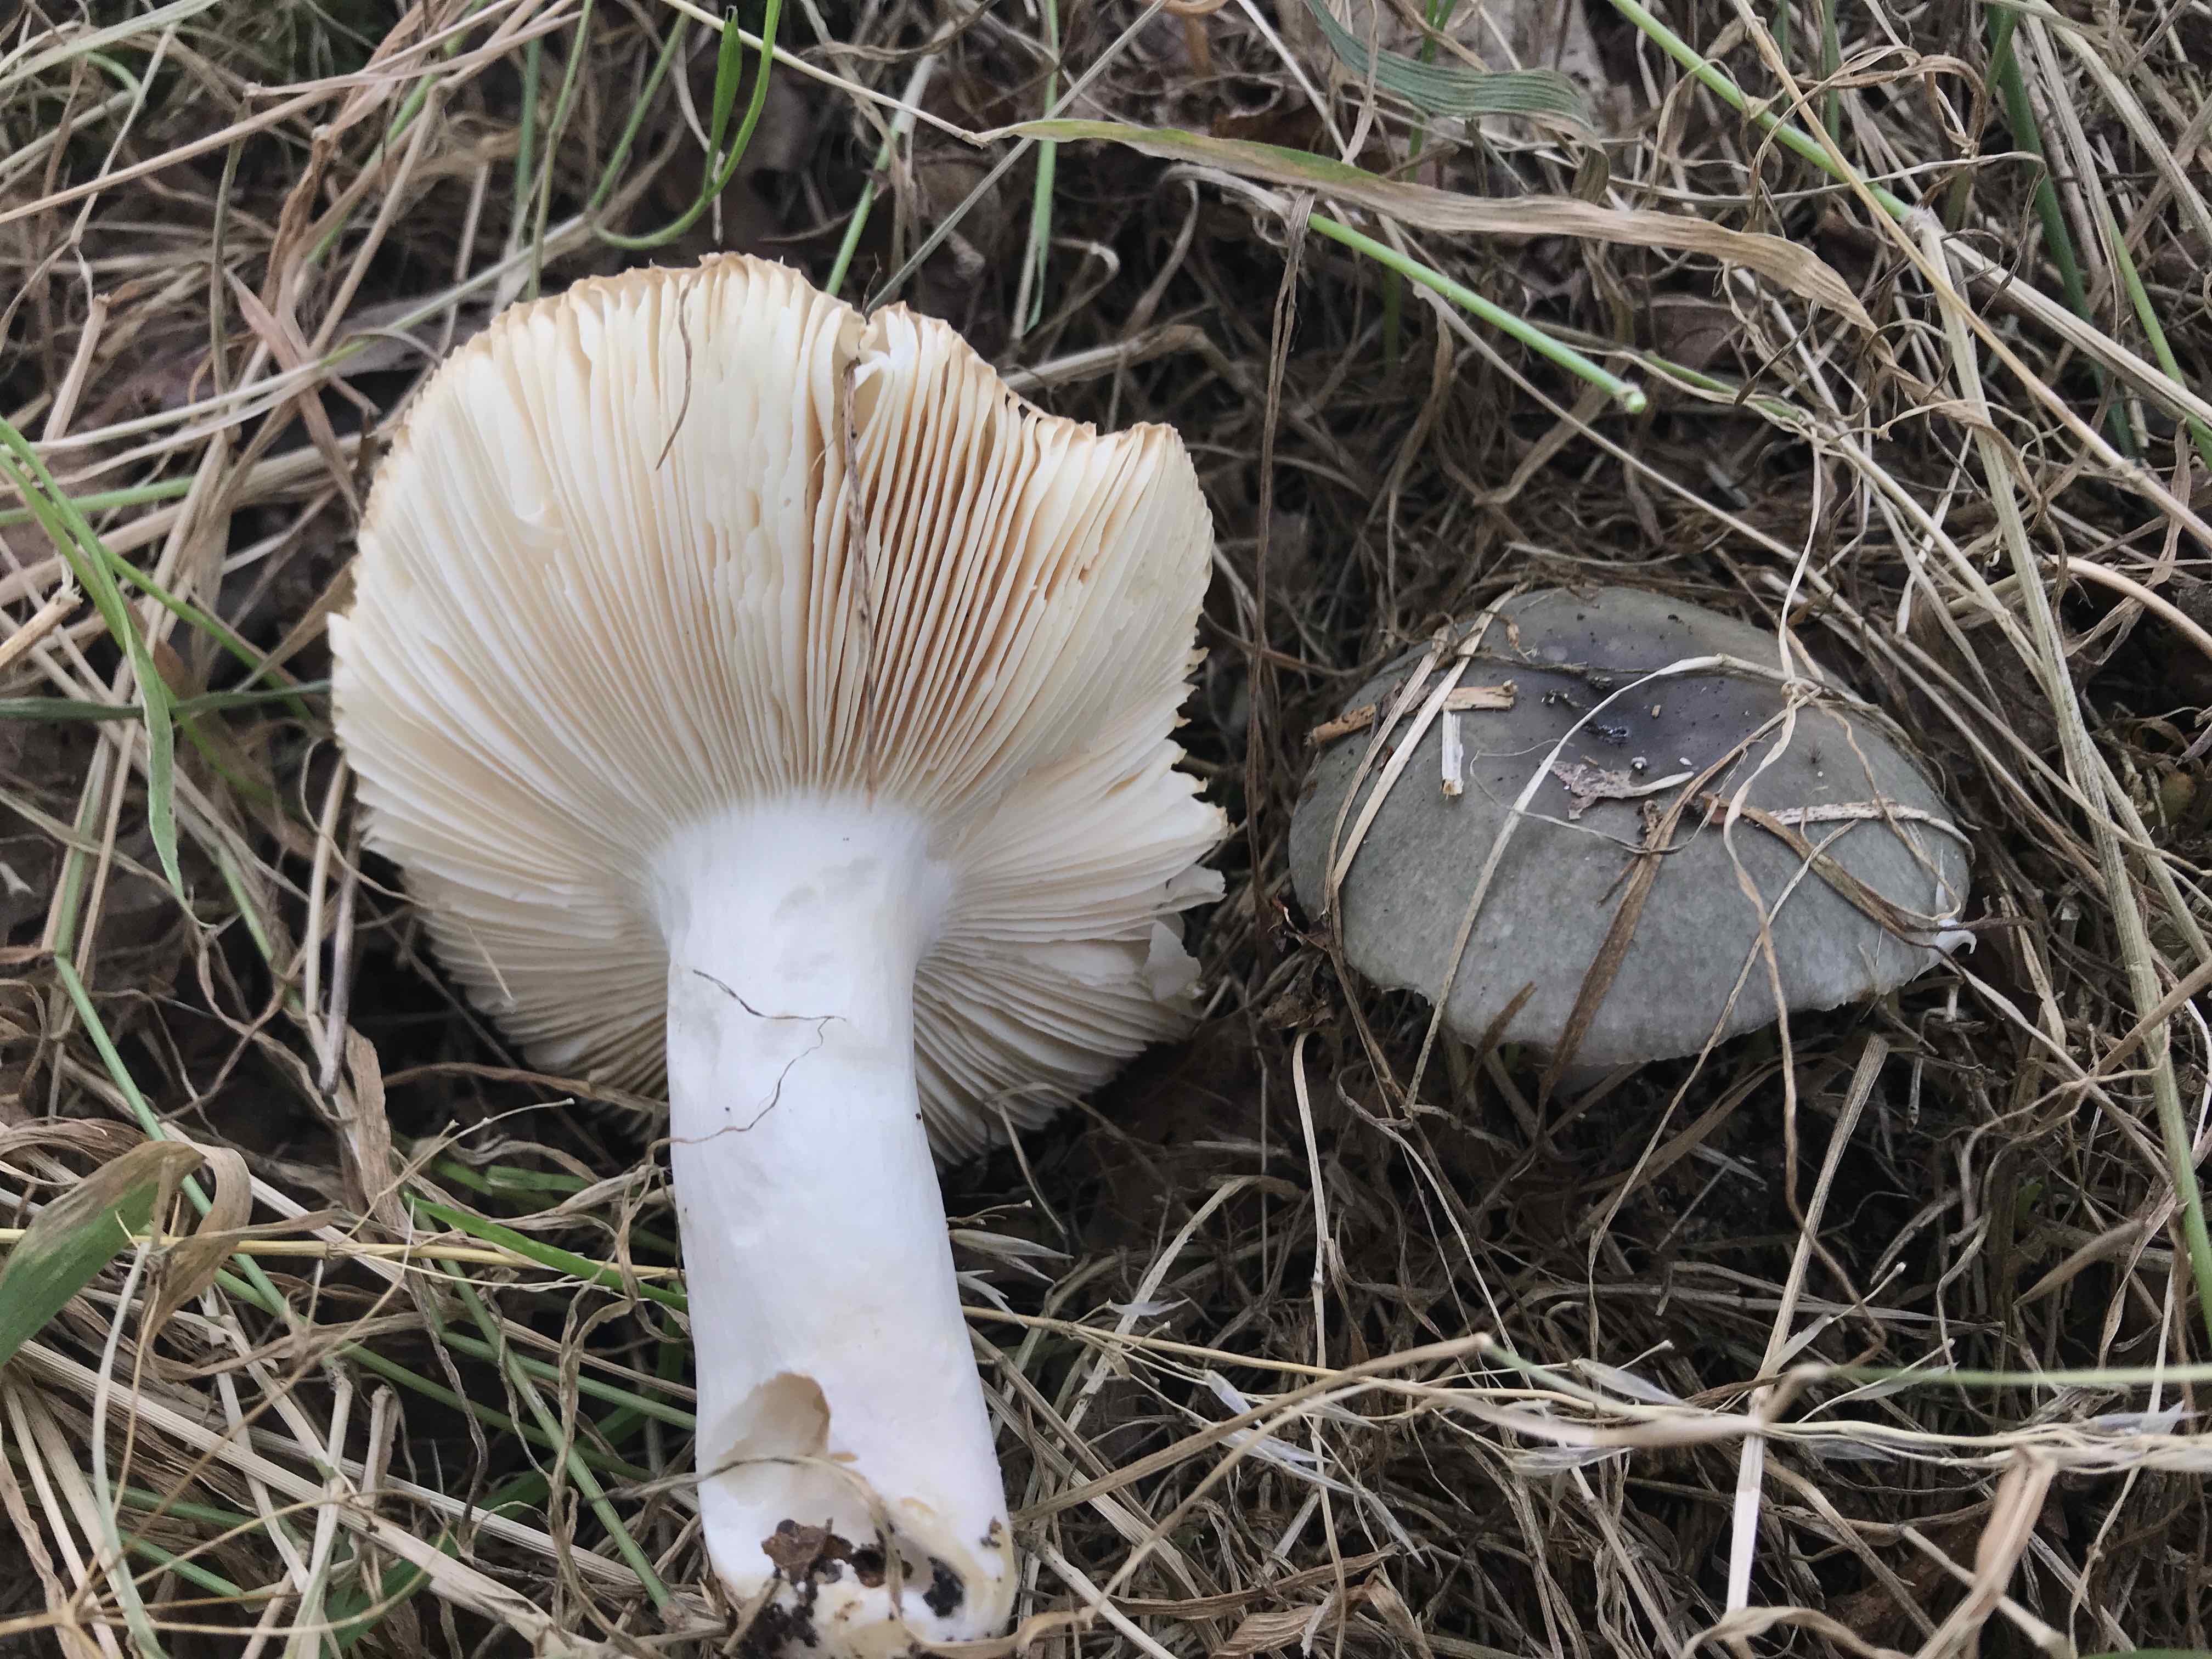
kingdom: Fungi
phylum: Basidiomycota
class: Agaricomycetes
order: Russulales
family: Russulaceae
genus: Russula
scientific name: Russula parazurea
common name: blågrå skørhat
